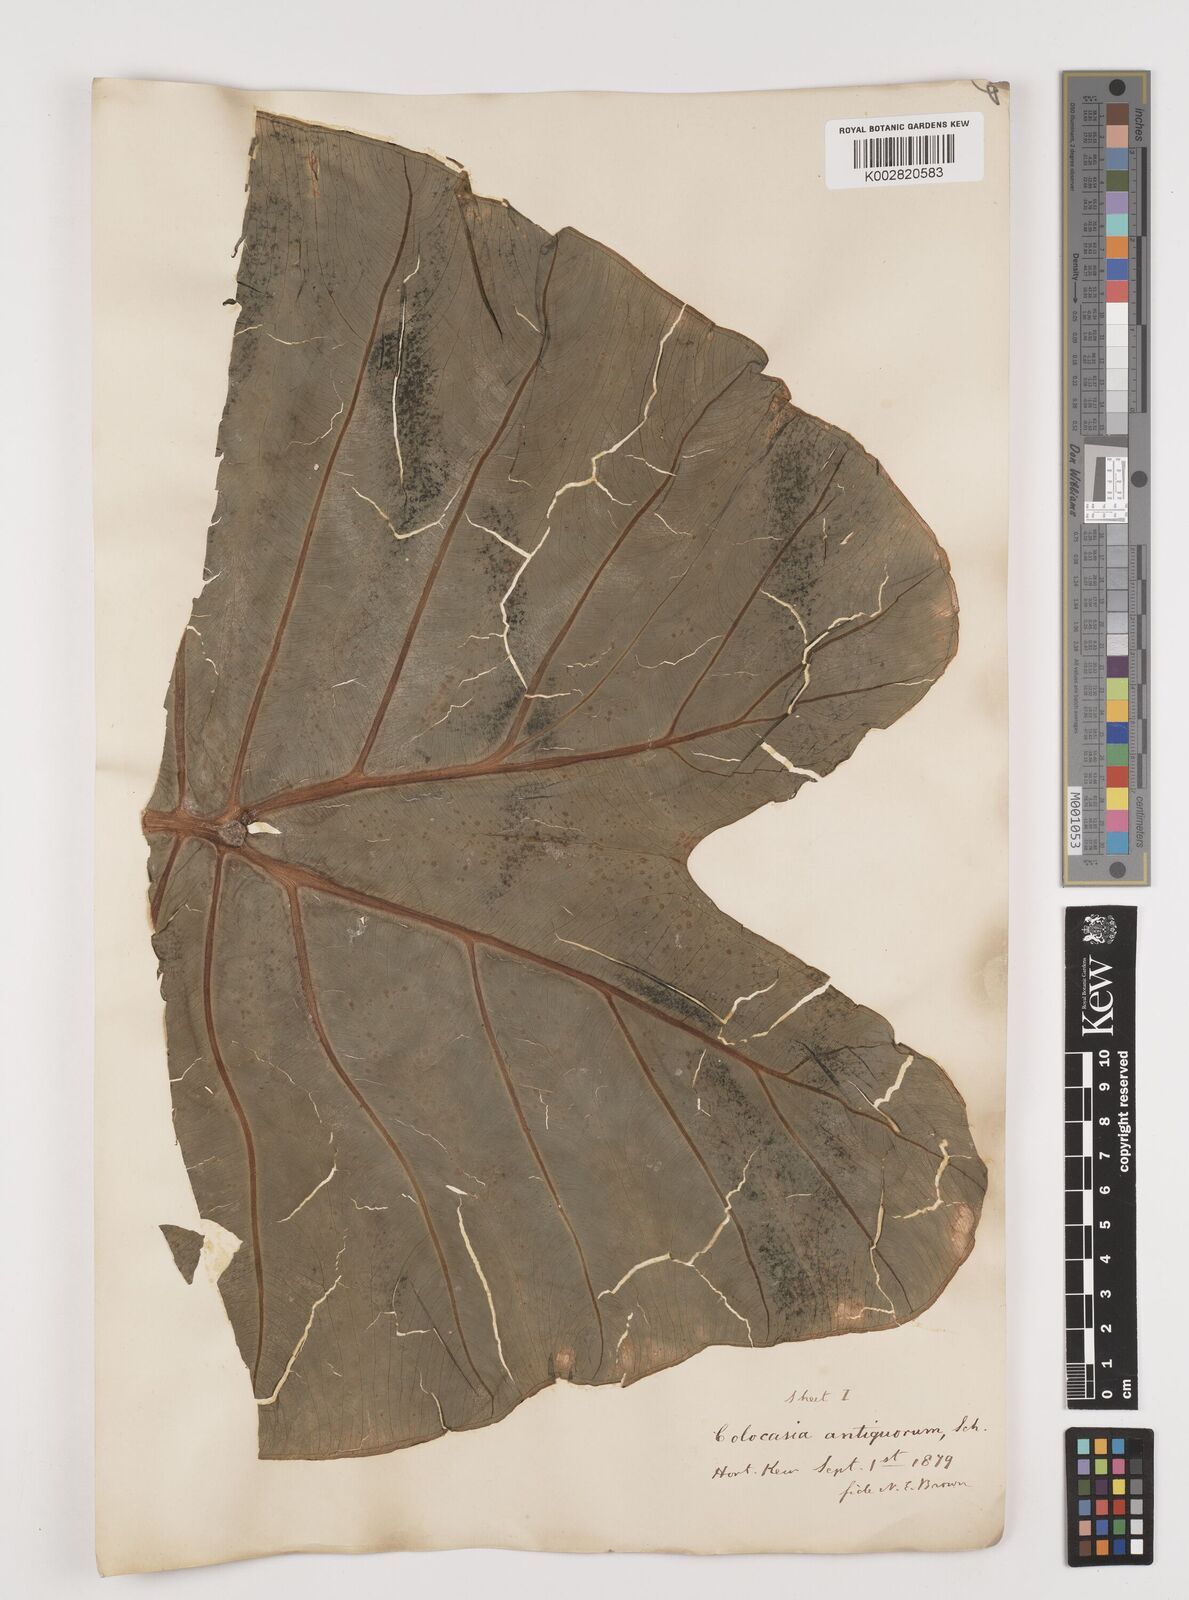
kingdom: Plantae
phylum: Tracheophyta
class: Liliopsida
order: Alismatales
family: Araceae
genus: Colocasia
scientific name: Colocasia esculenta
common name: Taro
